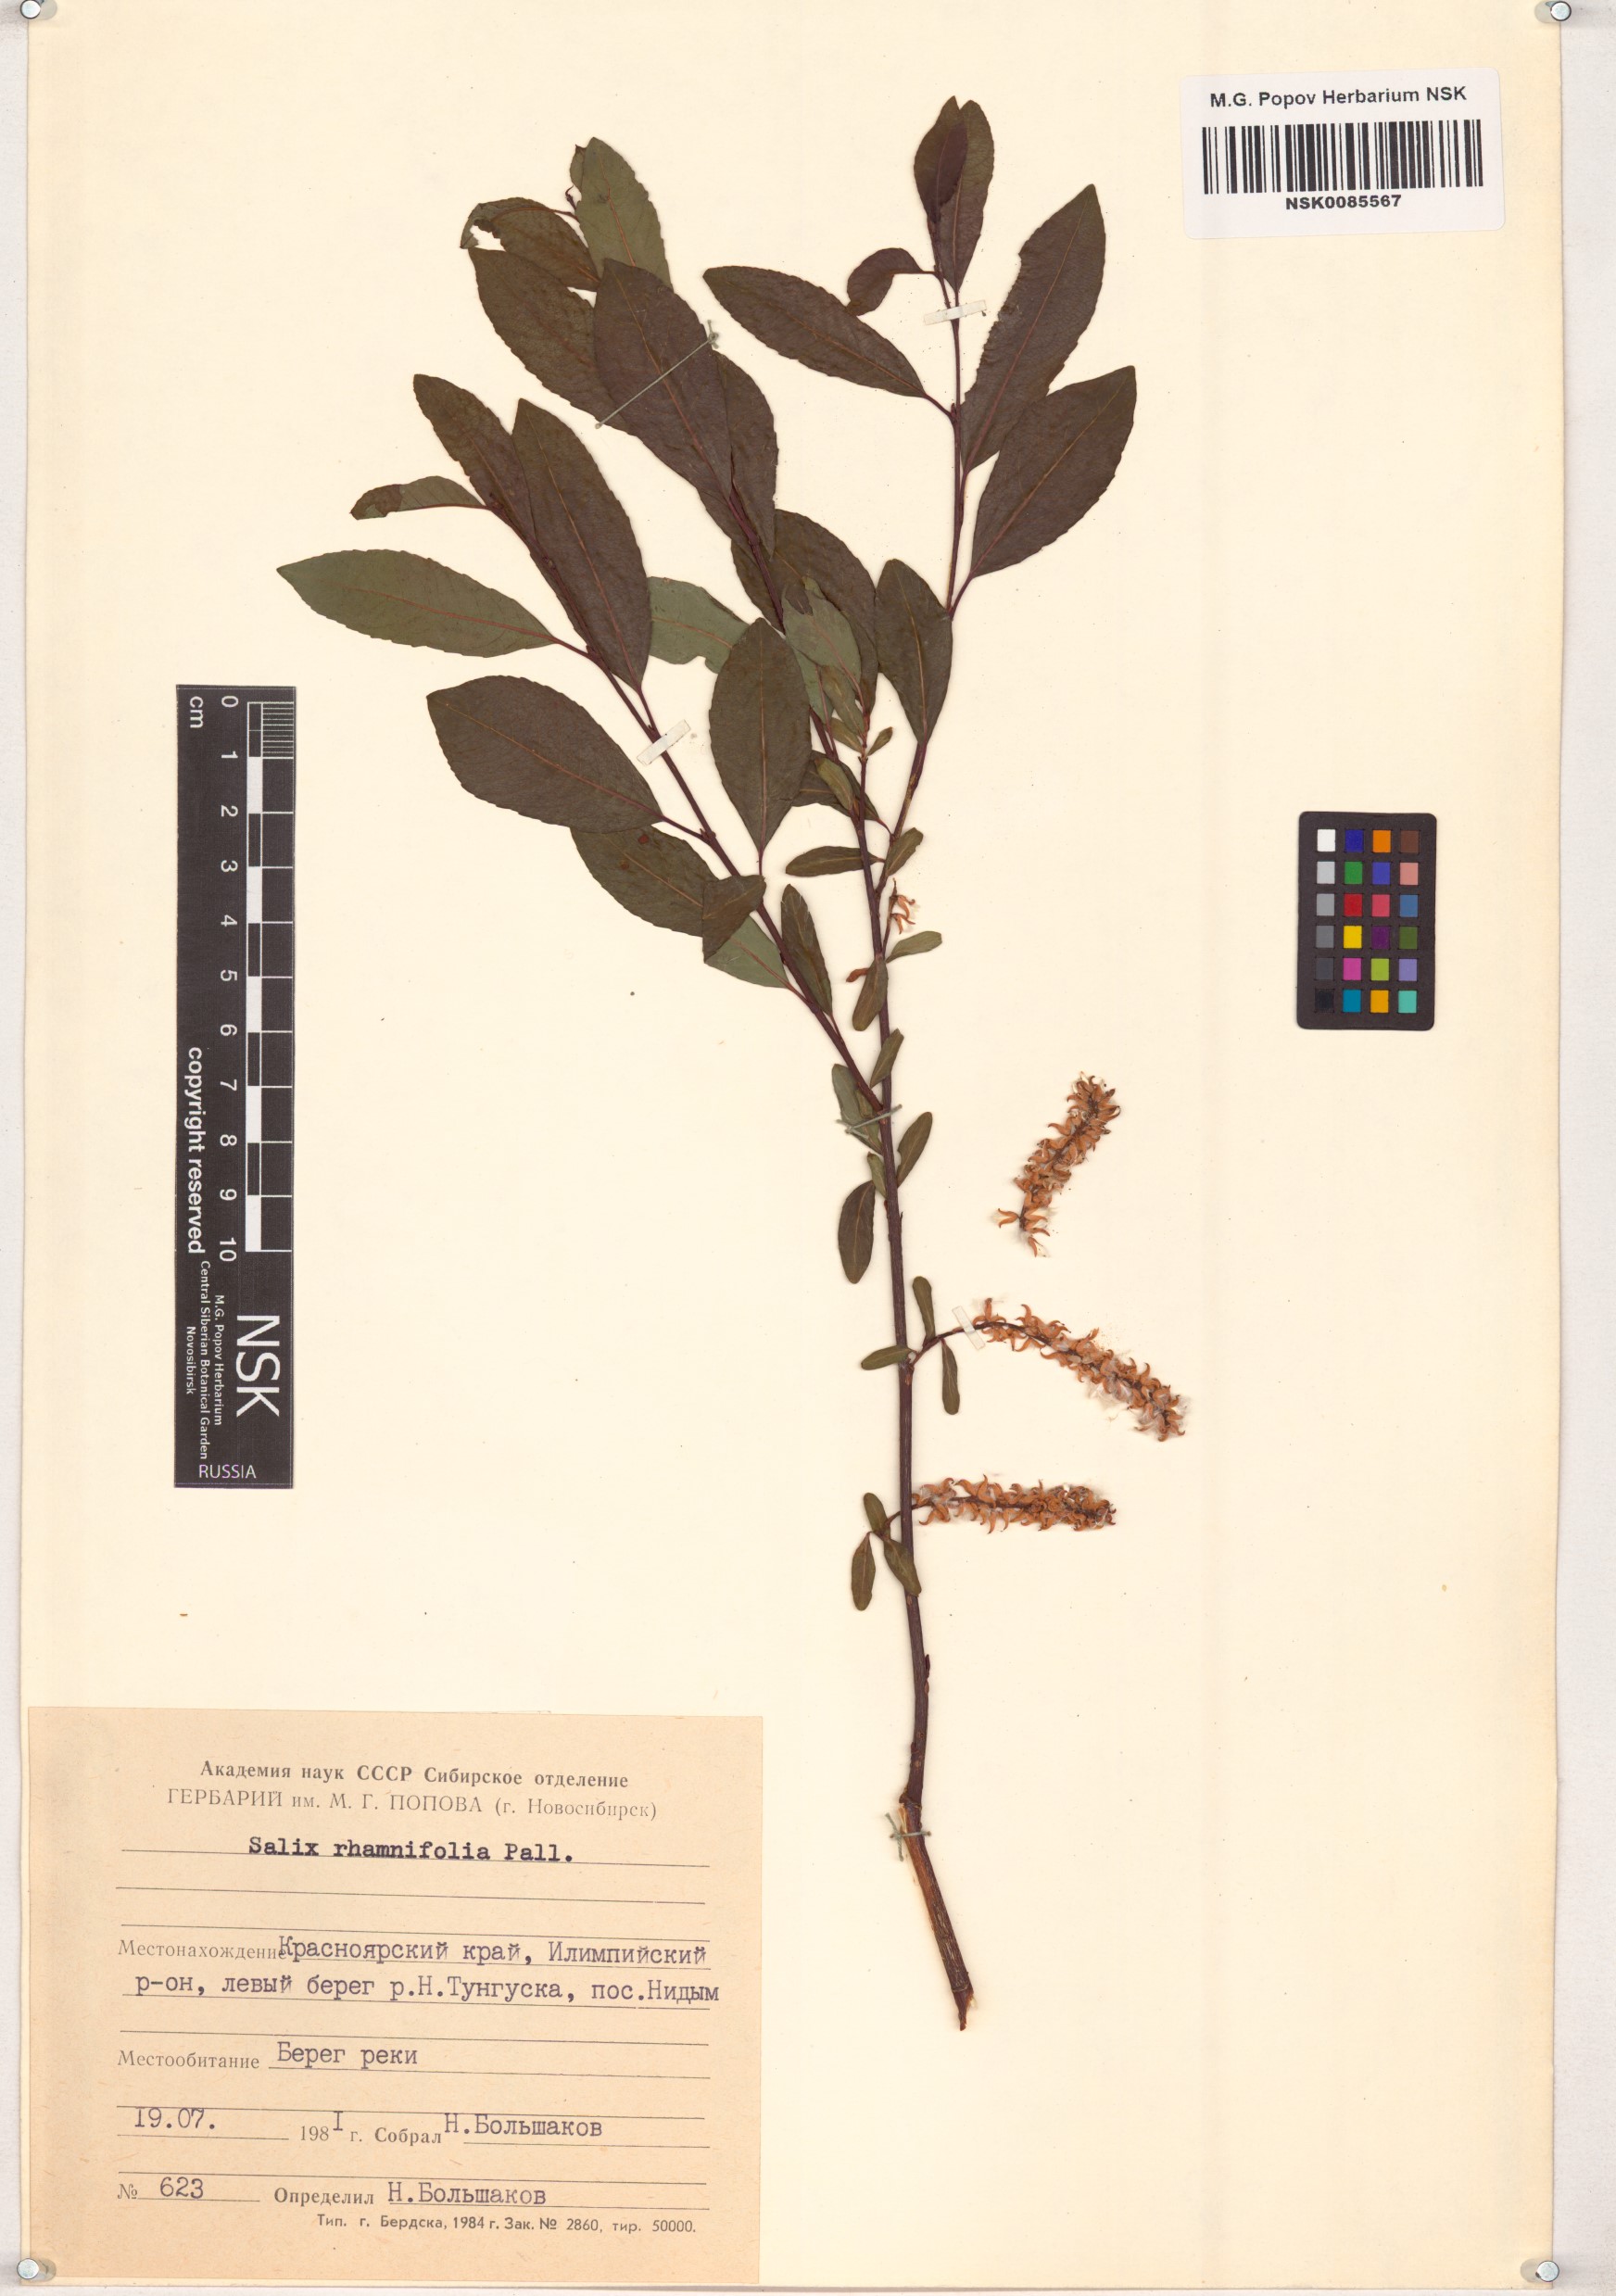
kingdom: Plantae
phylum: Tracheophyta
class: Magnoliopsida
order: Malpighiales
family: Salicaceae
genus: Salix
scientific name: Salix rhamnifolia
